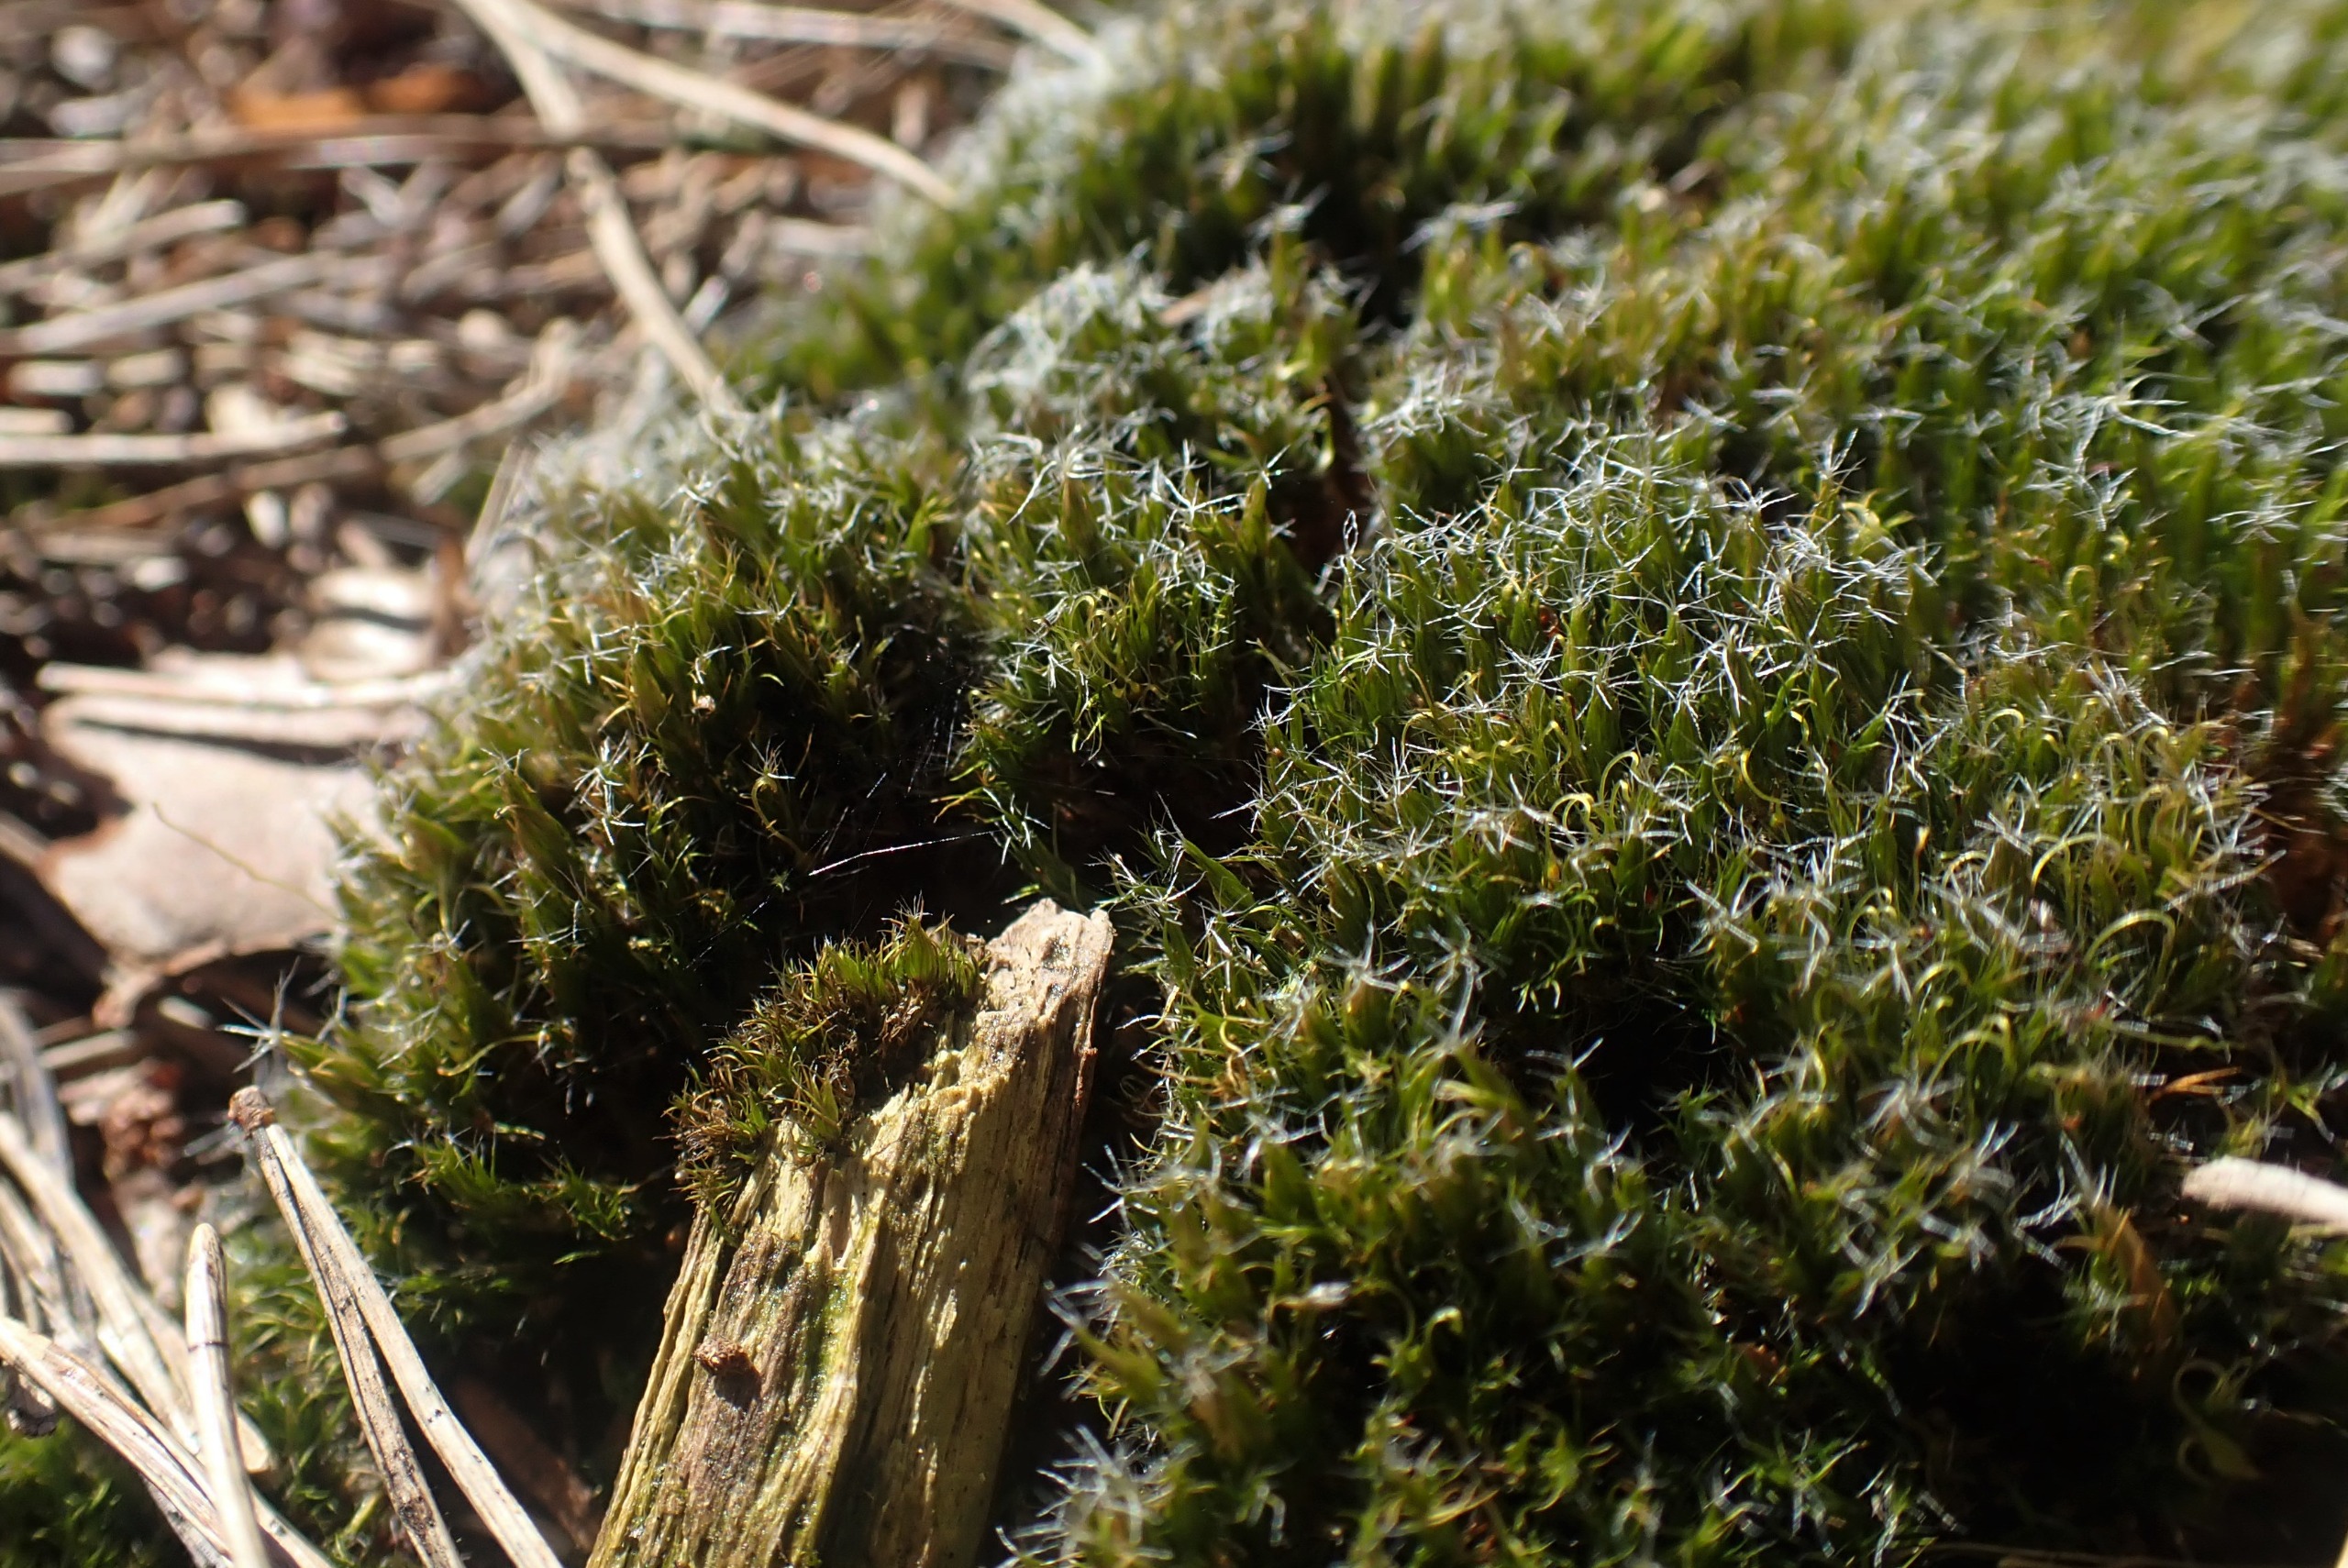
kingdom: Plantae
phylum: Bryophyta
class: Bryopsida
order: Dicranales
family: Leucobryaceae
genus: Campylopus
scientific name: Campylopus introflexus
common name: Stjerne-bredribbe
